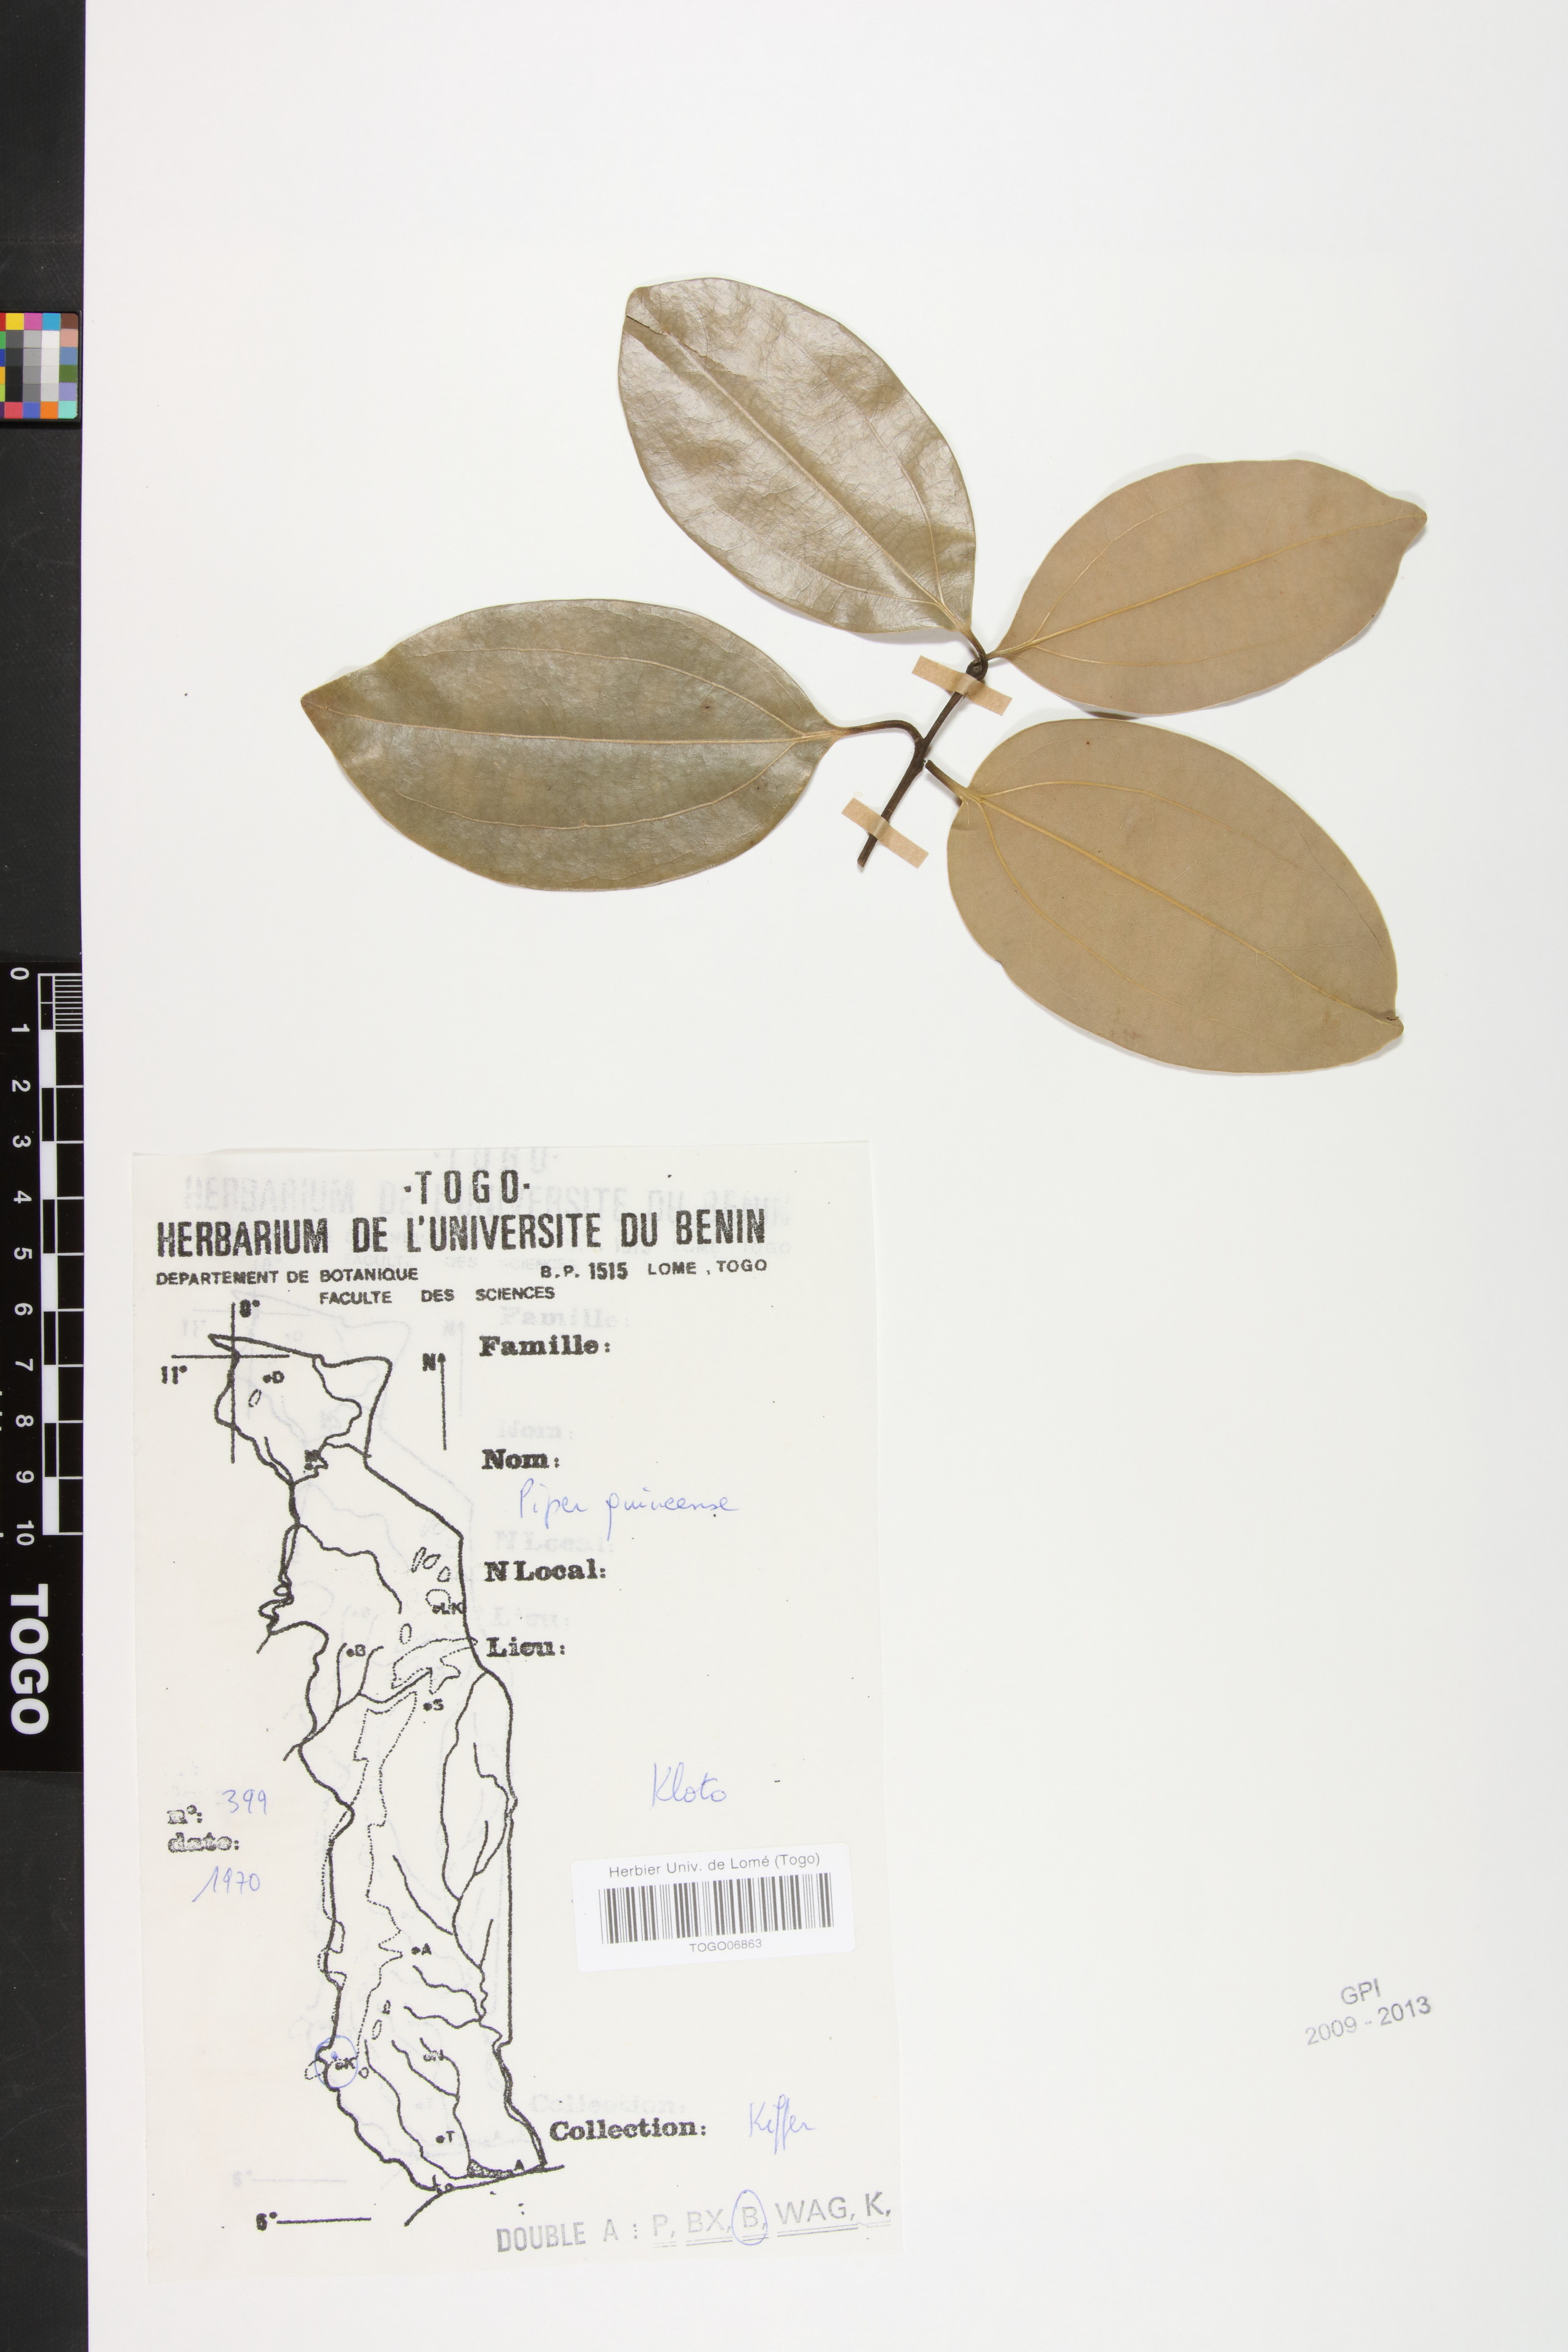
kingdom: Plantae
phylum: Tracheophyta
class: Magnoliopsida
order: Piperales
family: Piperaceae
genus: Piper
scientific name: Piper guineense
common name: Benin pepper
